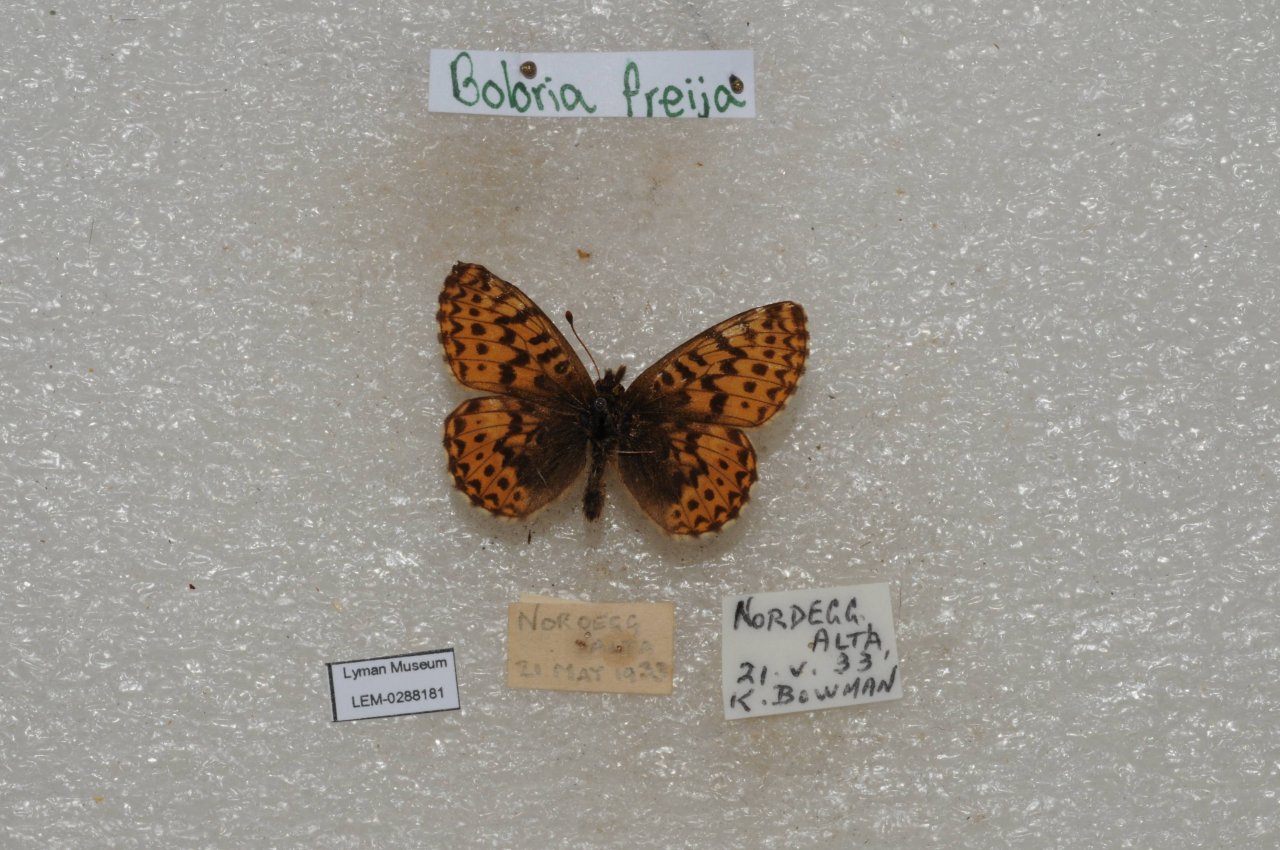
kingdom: Animalia
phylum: Arthropoda
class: Insecta
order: Lepidoptera
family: Nymphalidae
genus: Boloria
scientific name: Boloria freija
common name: Freija Fritillary
